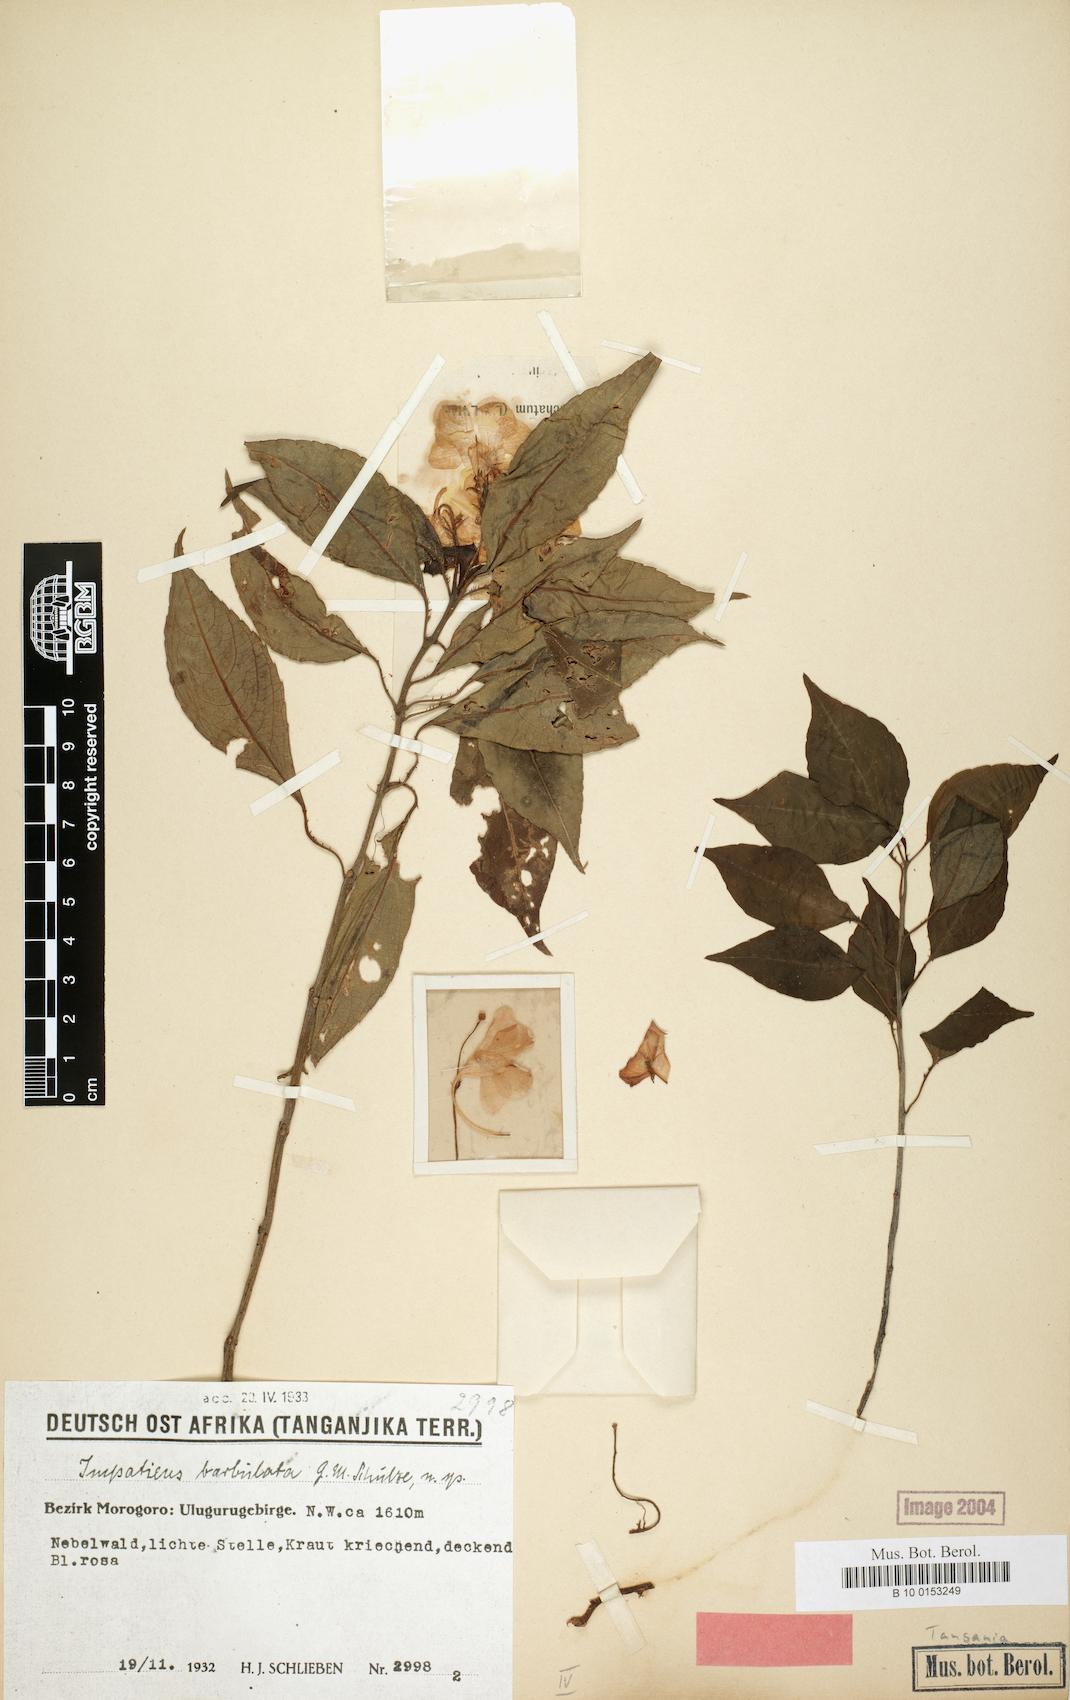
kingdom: Plantae
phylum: Tracheophyta
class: Magnoliopsida
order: Ericales
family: Balsaminaceae
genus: Impatiens
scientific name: Impatiens barbulata
